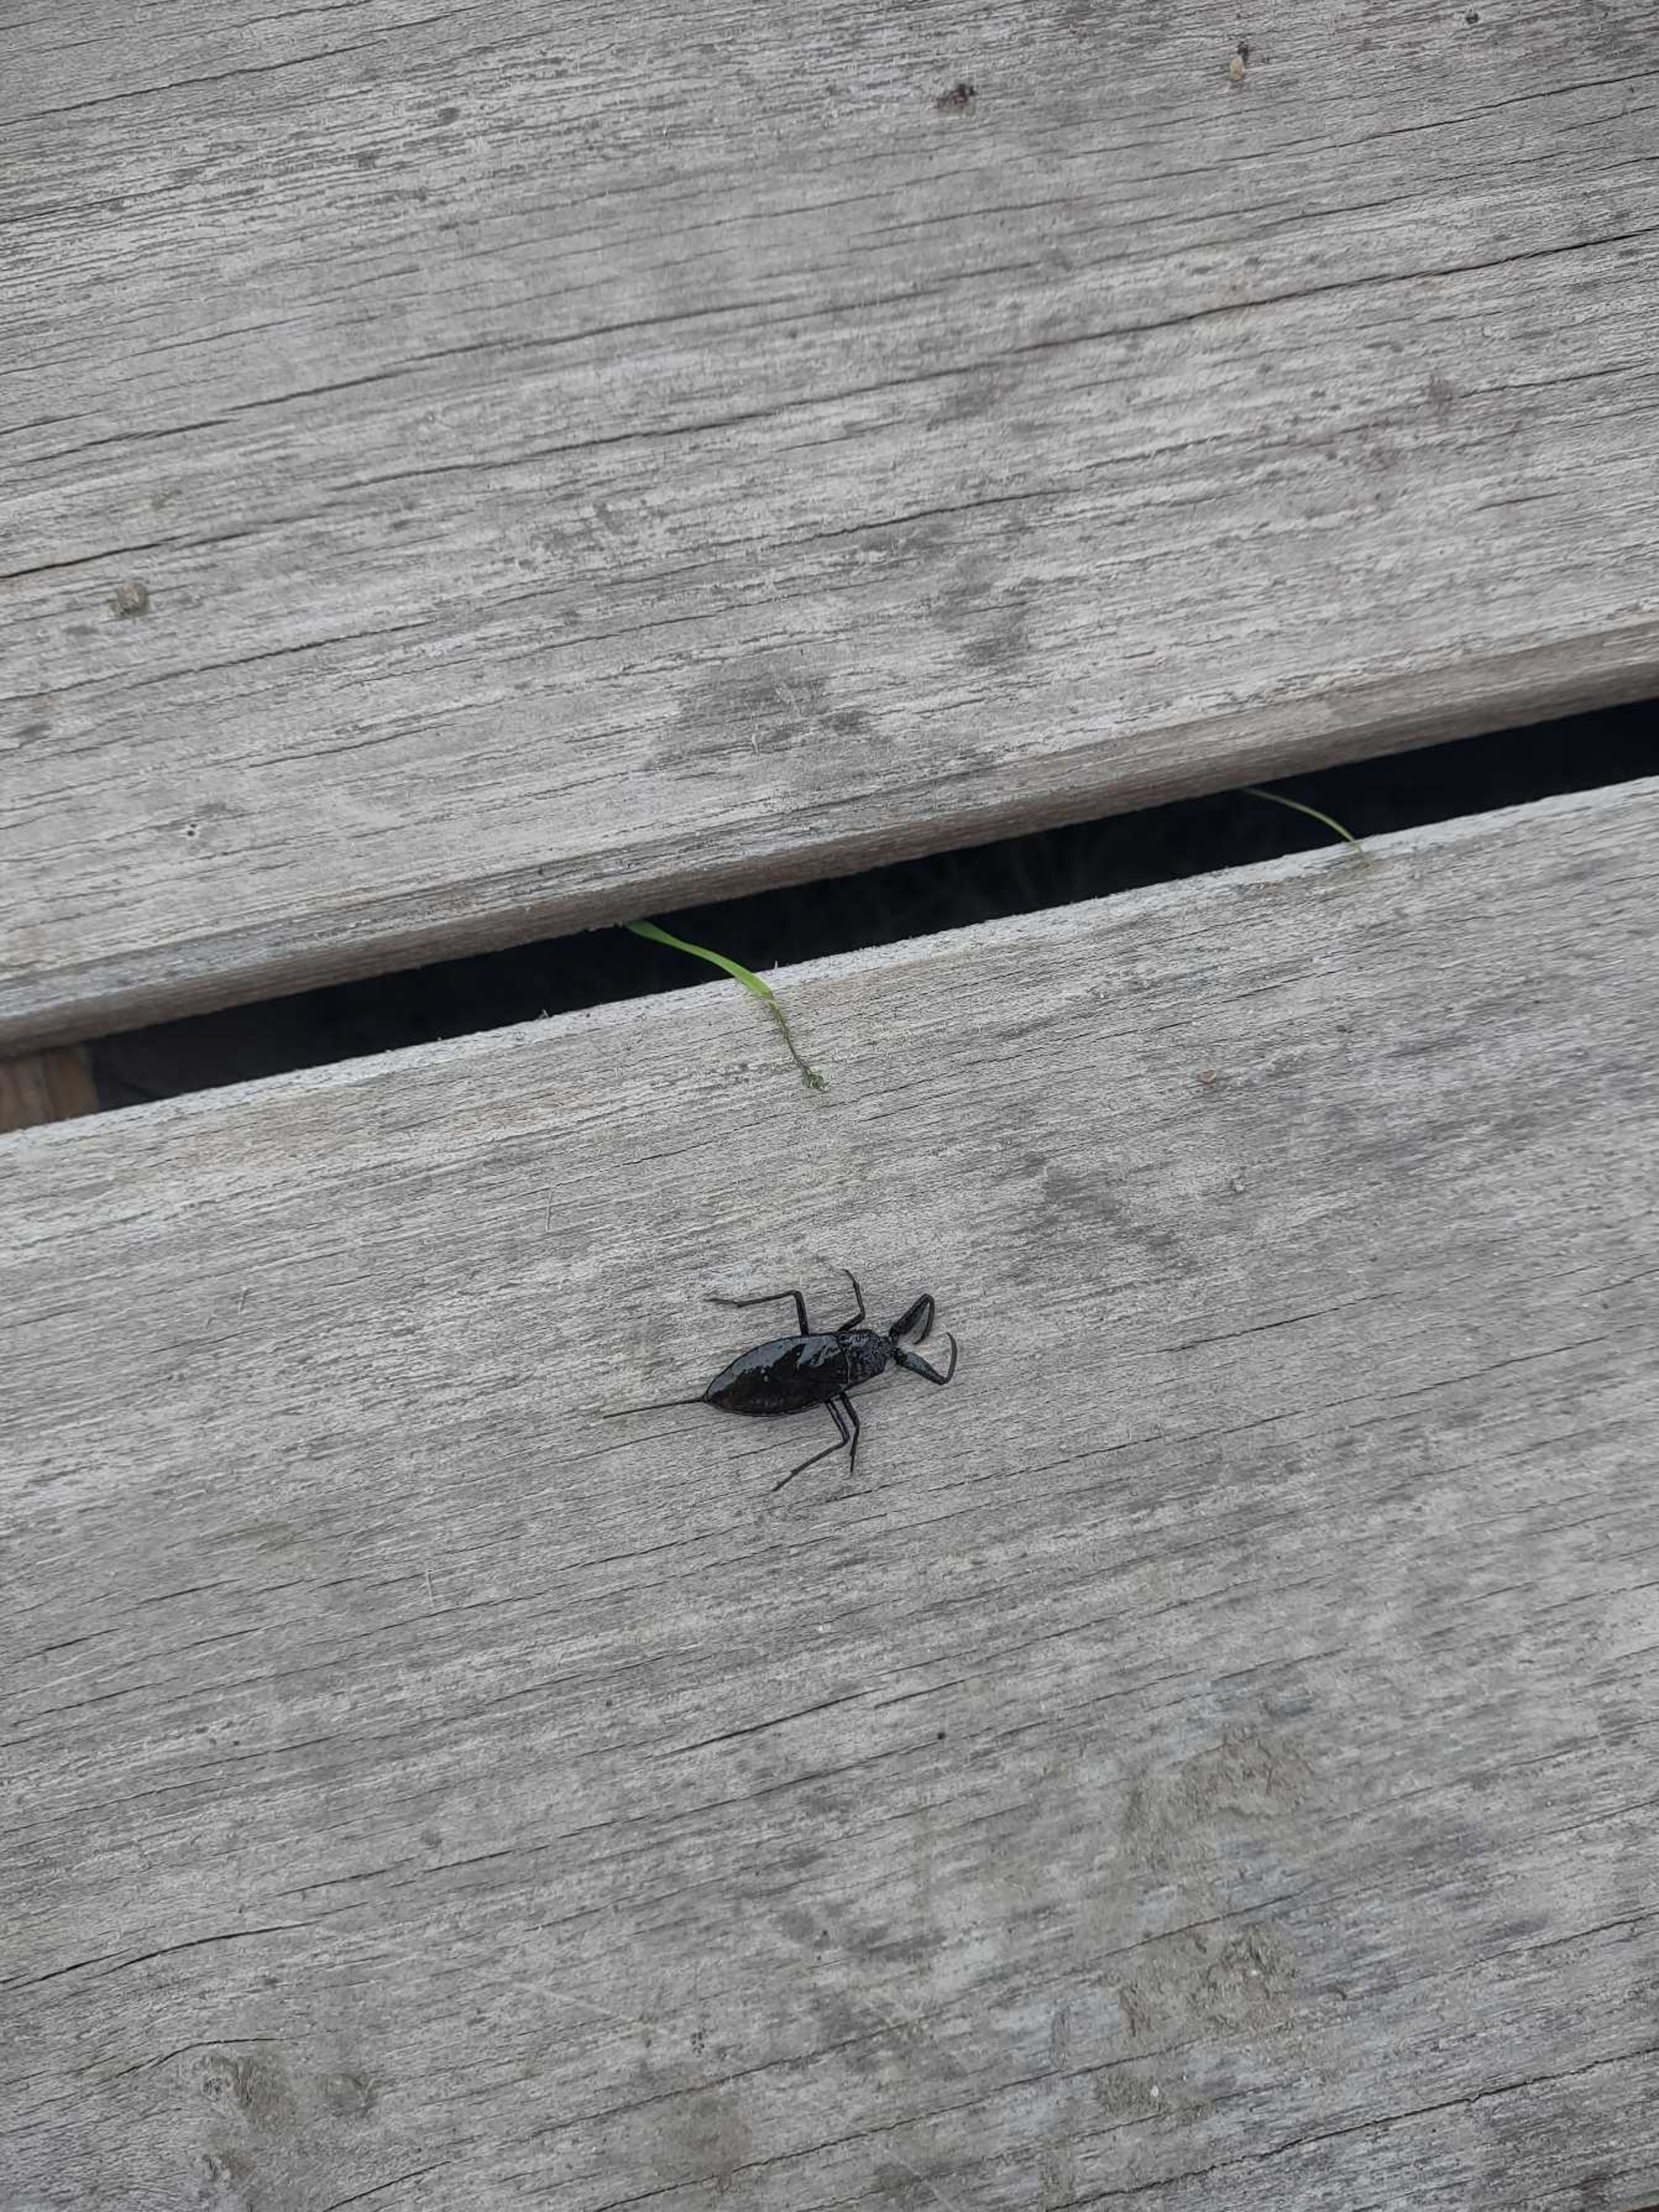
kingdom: Animalia
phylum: Arthropoda
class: Insecta
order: Hemiptera
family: Nepidae
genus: Nepa
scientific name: Nepa cinerea
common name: Skorpiontæge
